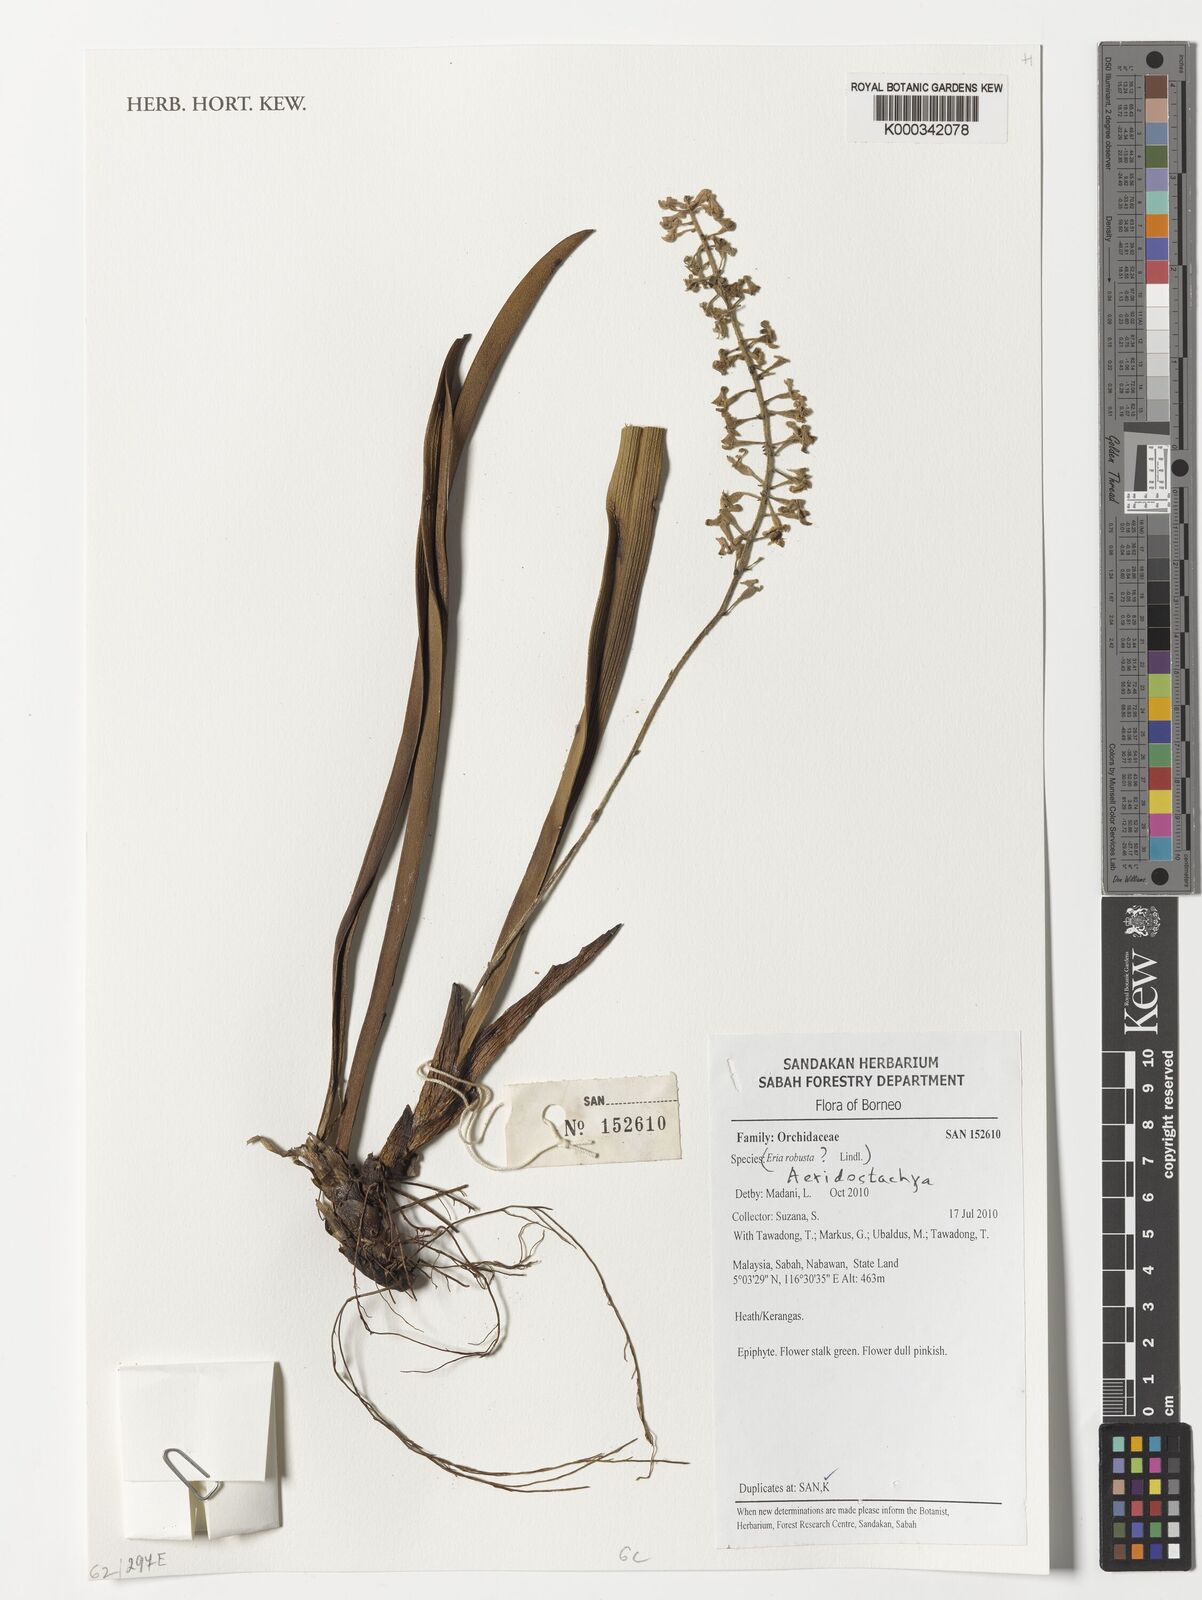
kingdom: Plantae
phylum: Tracheophyta
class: Liliopsida
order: Asparagales
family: Orchidaceae
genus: Eria
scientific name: Eria
